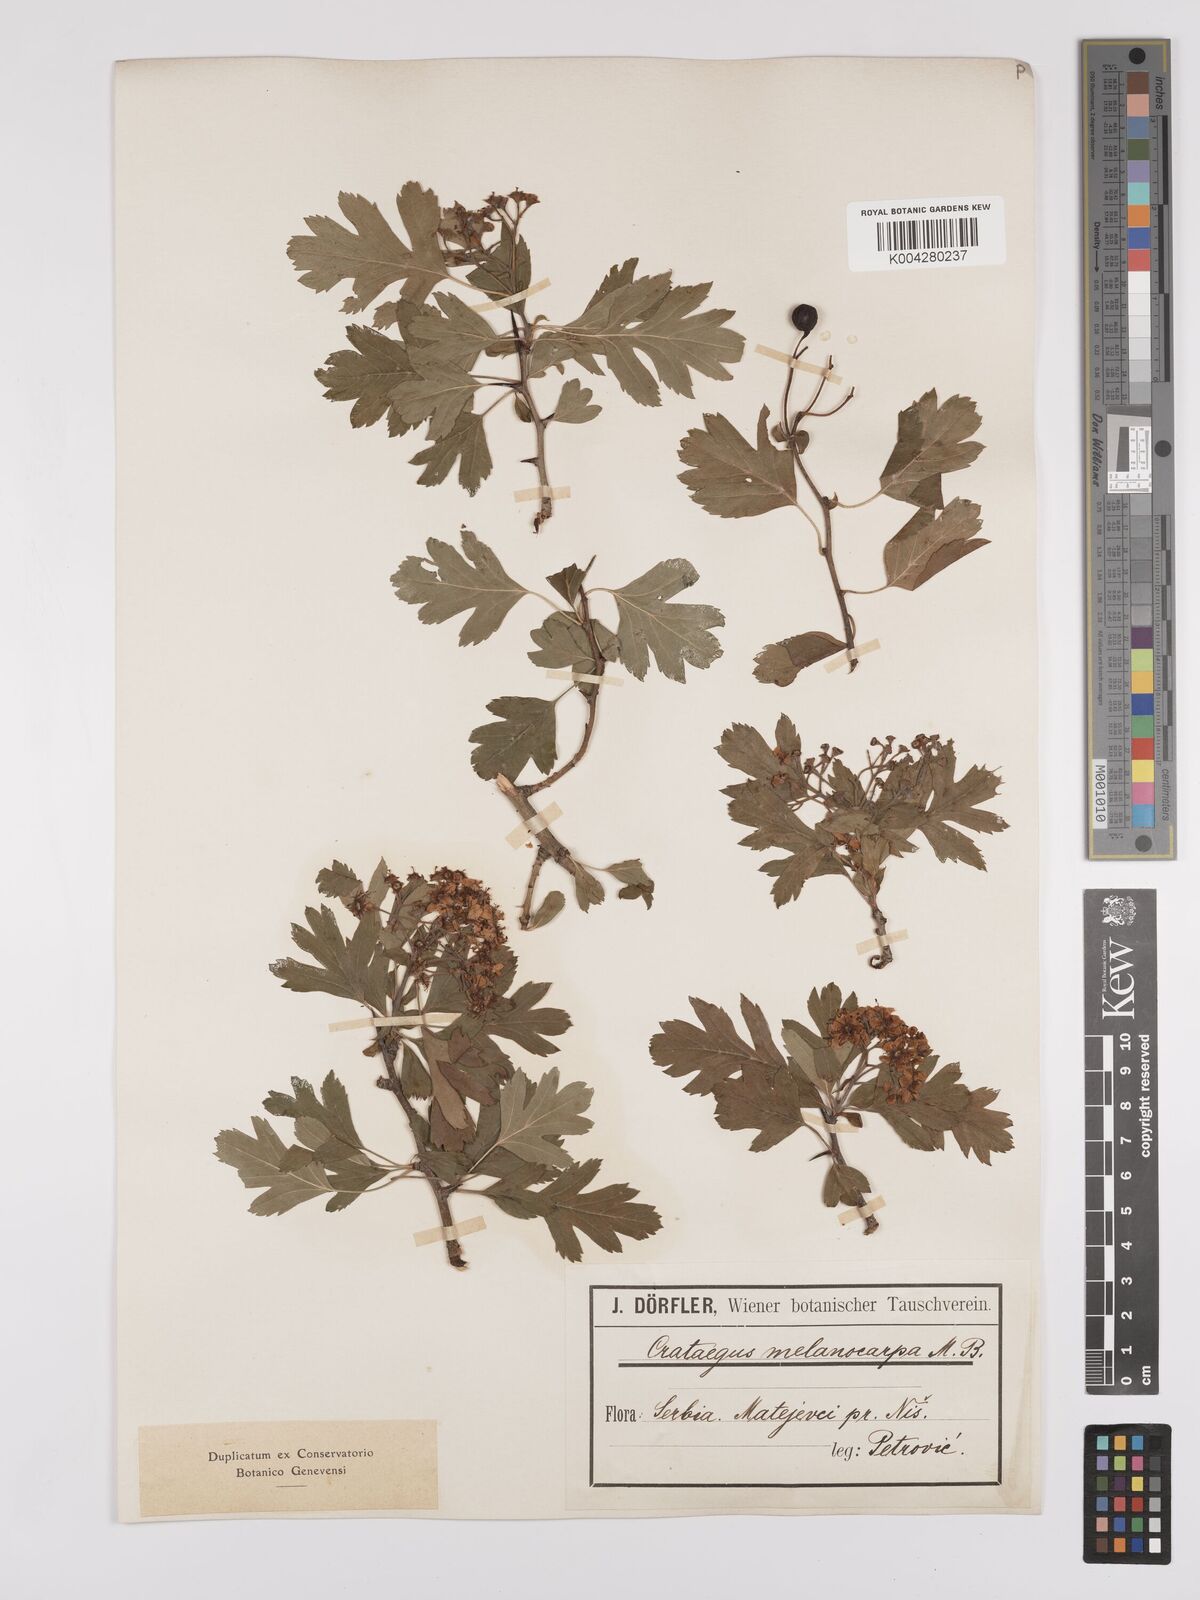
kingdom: Plantae
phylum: Tracheophyta
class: Magnoliopsida
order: Rosales
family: Rosaceae
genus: Crataegus
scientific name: Crataegus pentagyna
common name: Small-flowered black hawthorn
